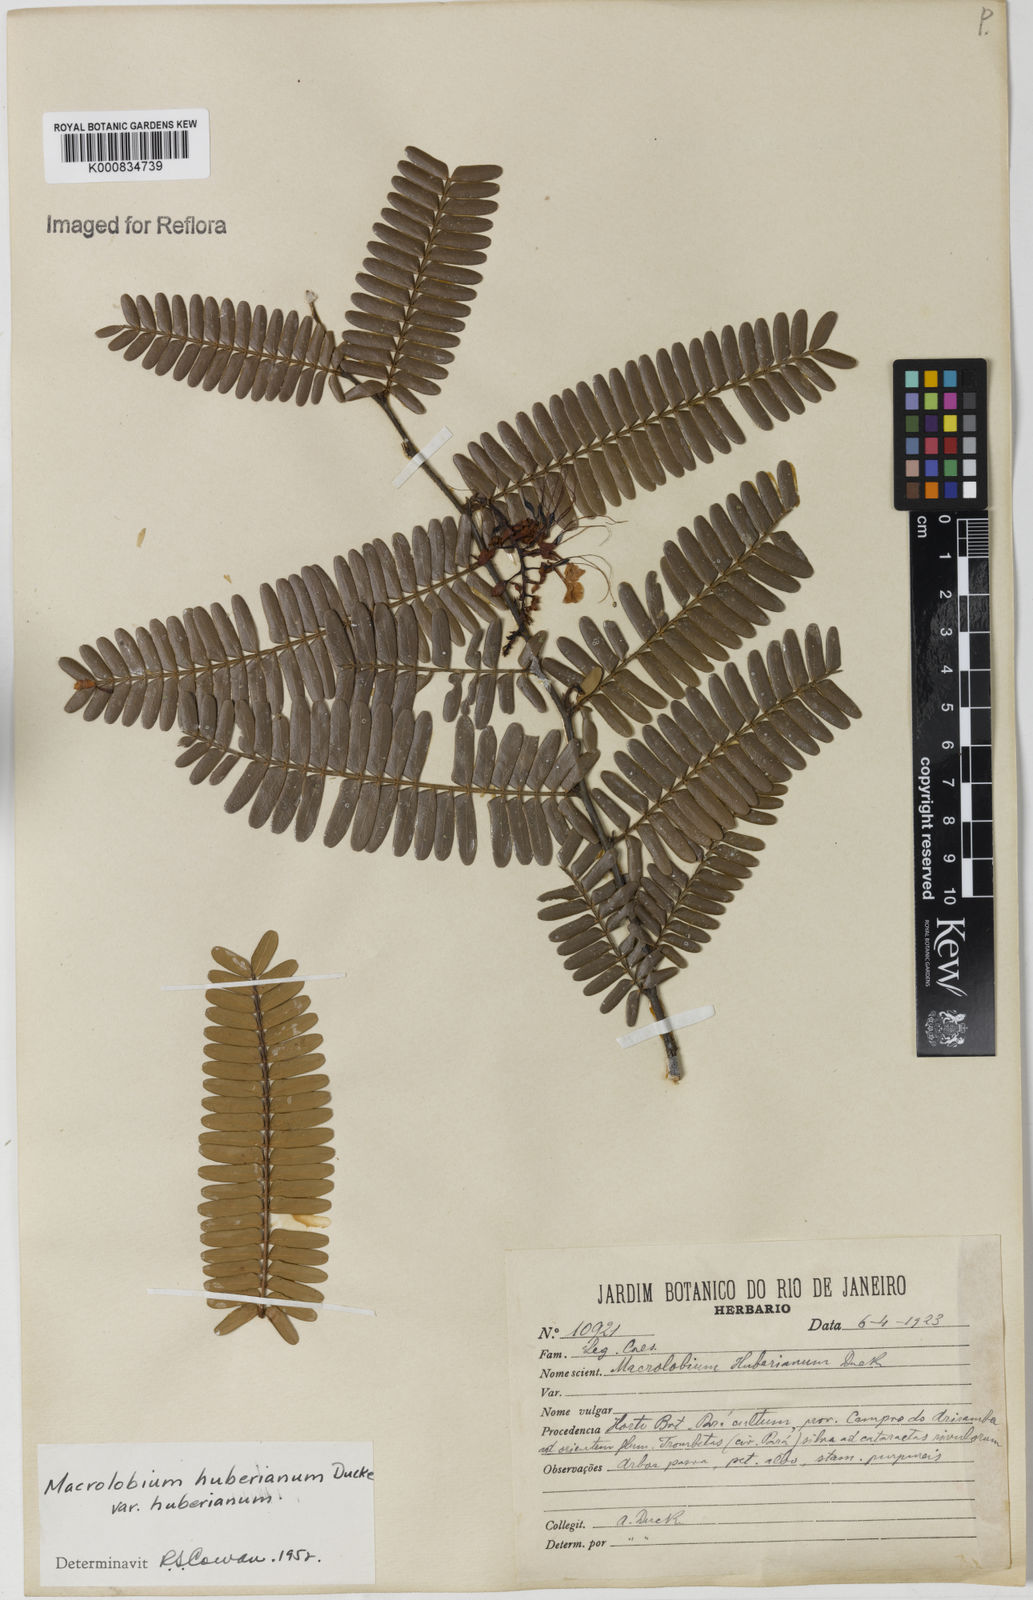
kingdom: Plantae
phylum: Tracheophyta
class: Magnoliopsida
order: Fabales
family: Fabaceae
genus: Macrolobium
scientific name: Macrolobium huberianum
